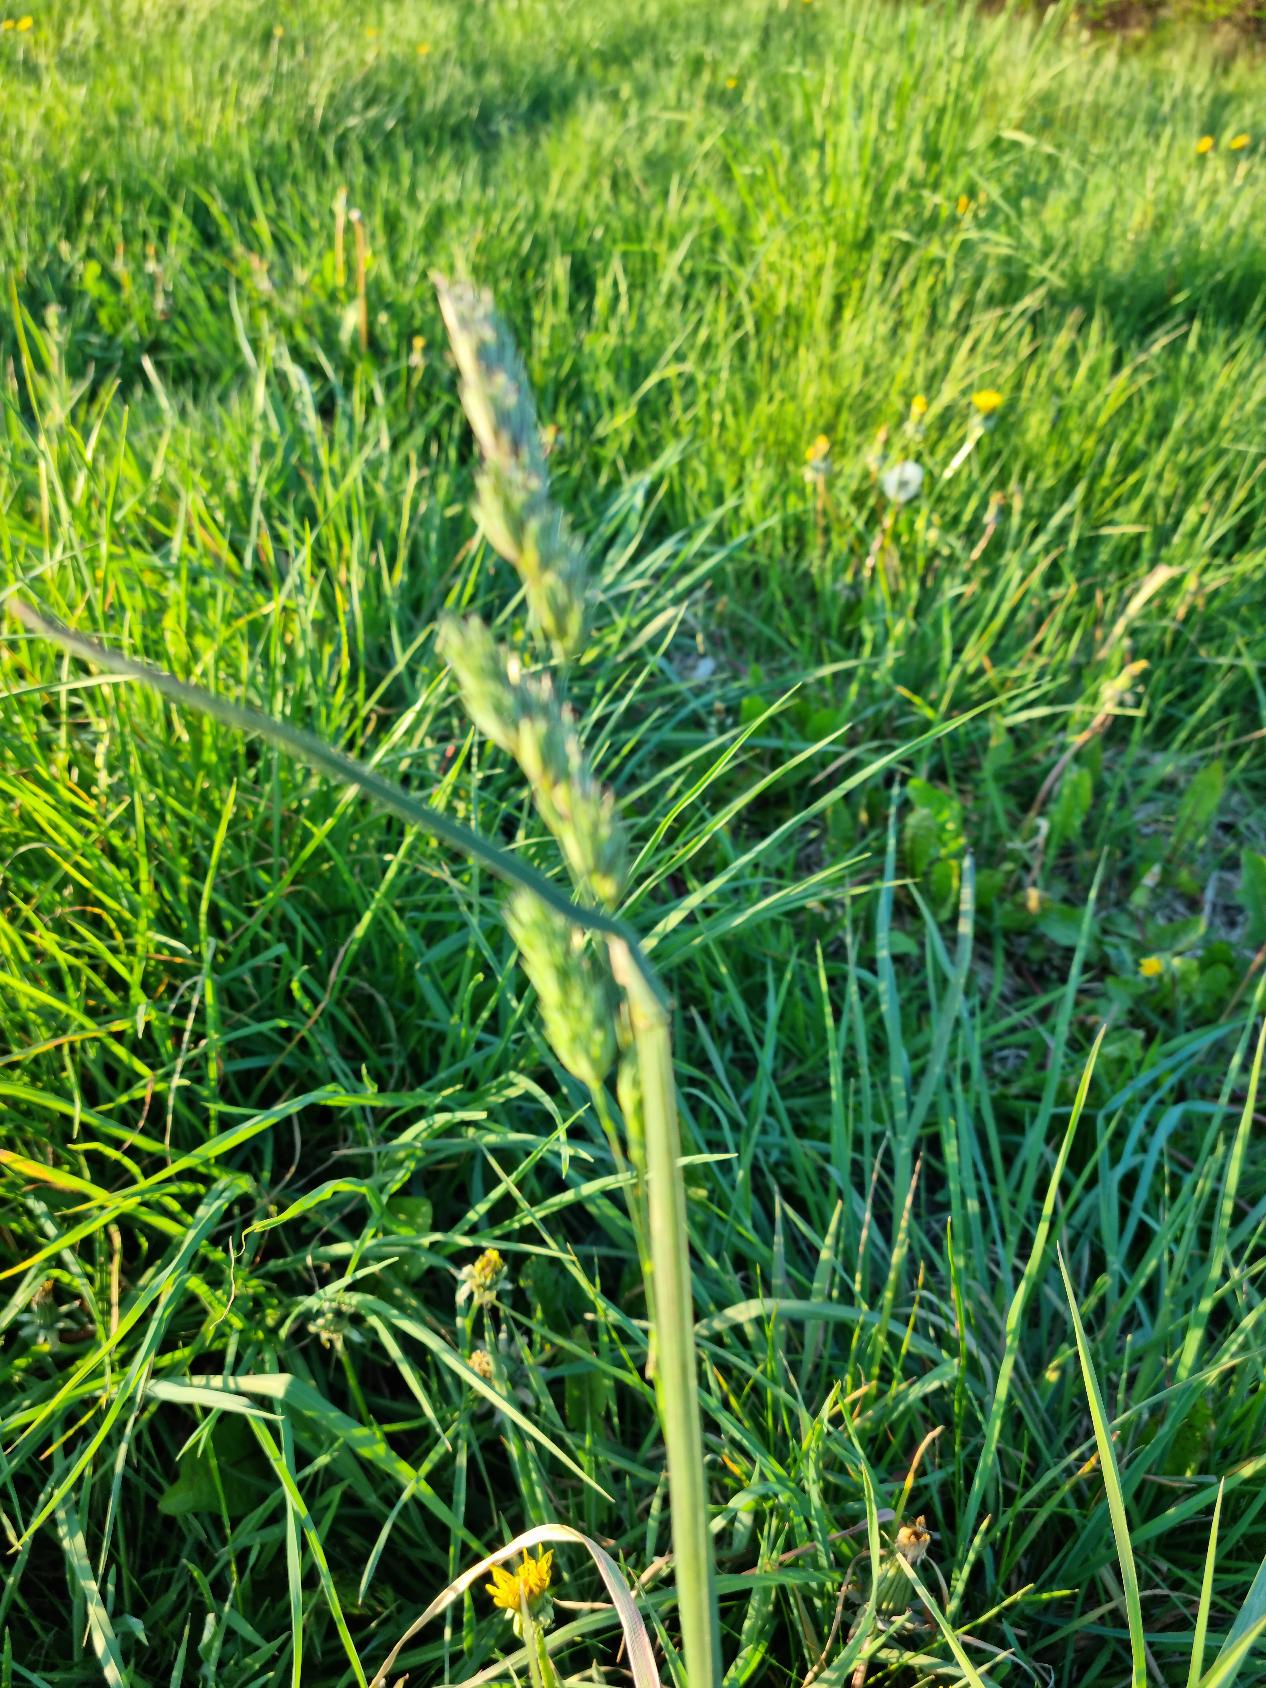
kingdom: Plantae
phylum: Tracheophyta
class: Liliopsida
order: Poales
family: Poaceae
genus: Dactylis
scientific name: Dactylis glomerata
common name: Almindelig hundegræs
